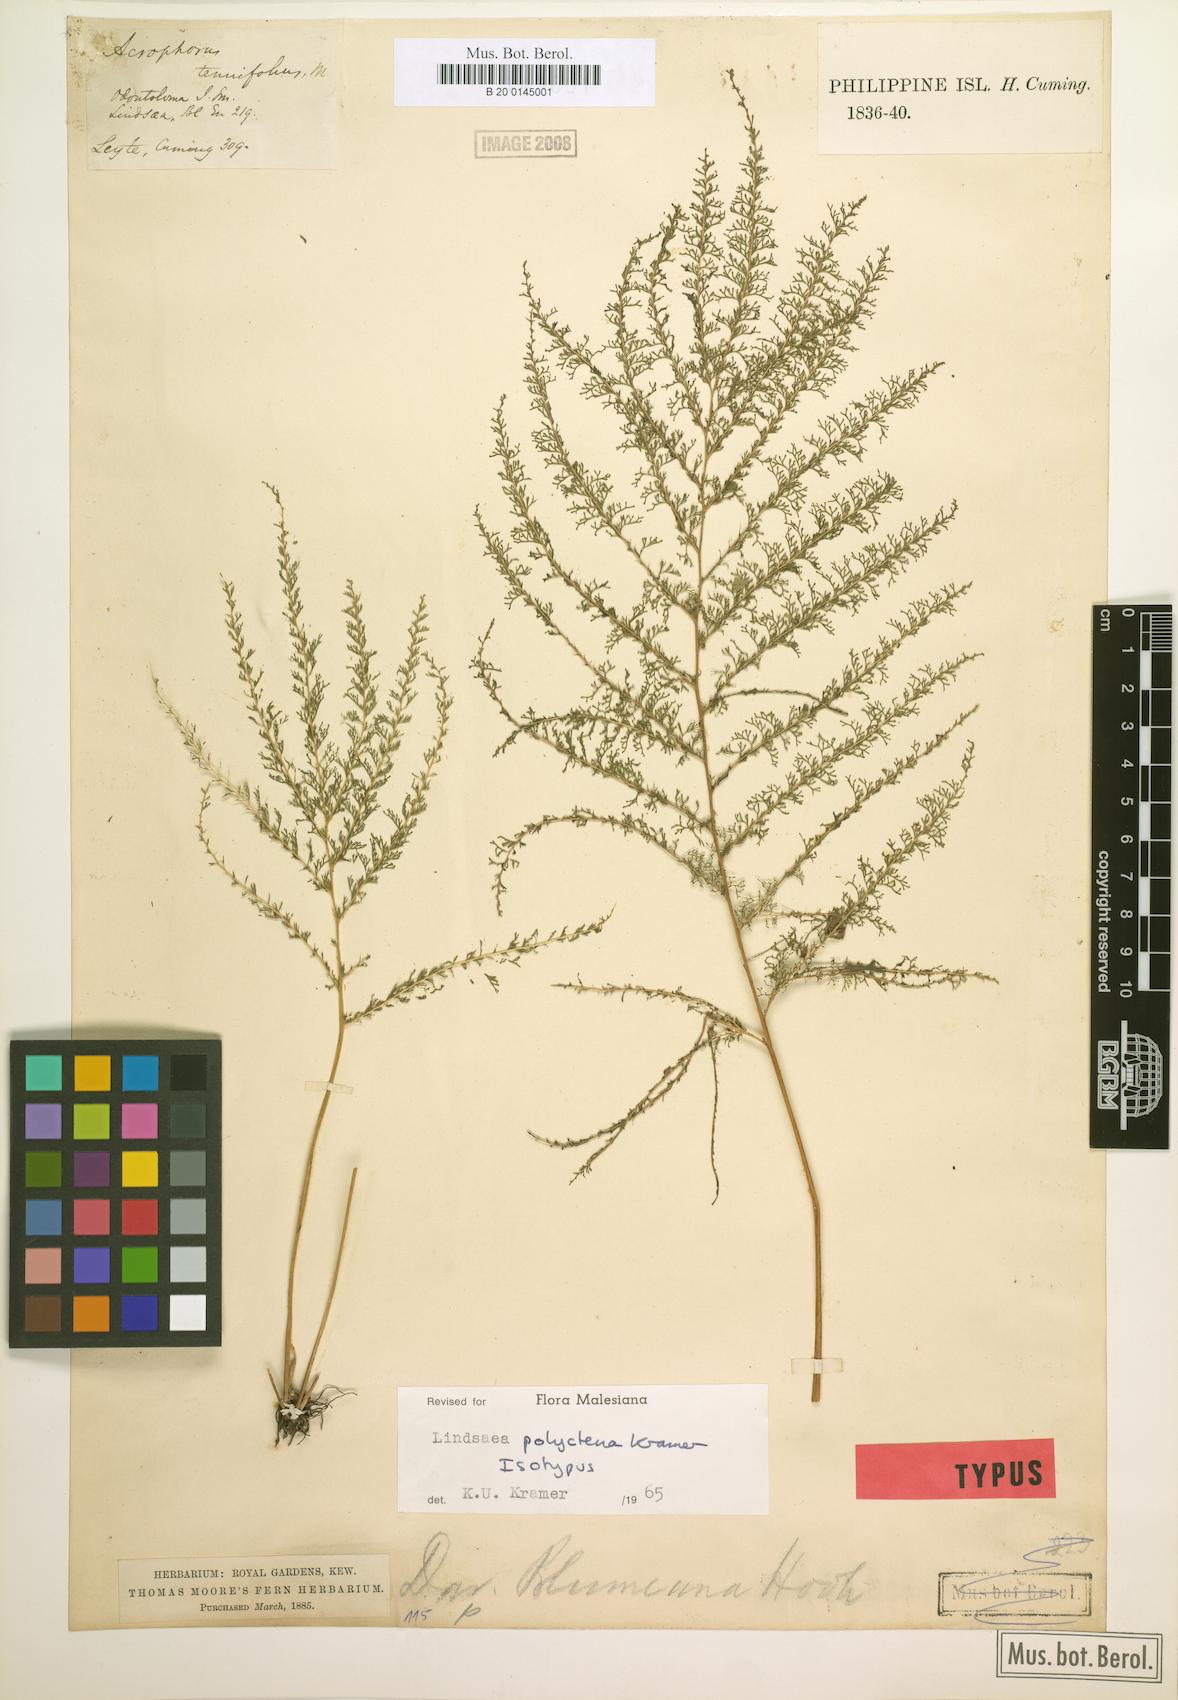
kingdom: Plantae
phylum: Tracheophyta
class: Polypodiopsida
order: Polypodiales
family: Lindsaeaceae
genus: Lindsaea
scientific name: Lindsaea tenuifolia
